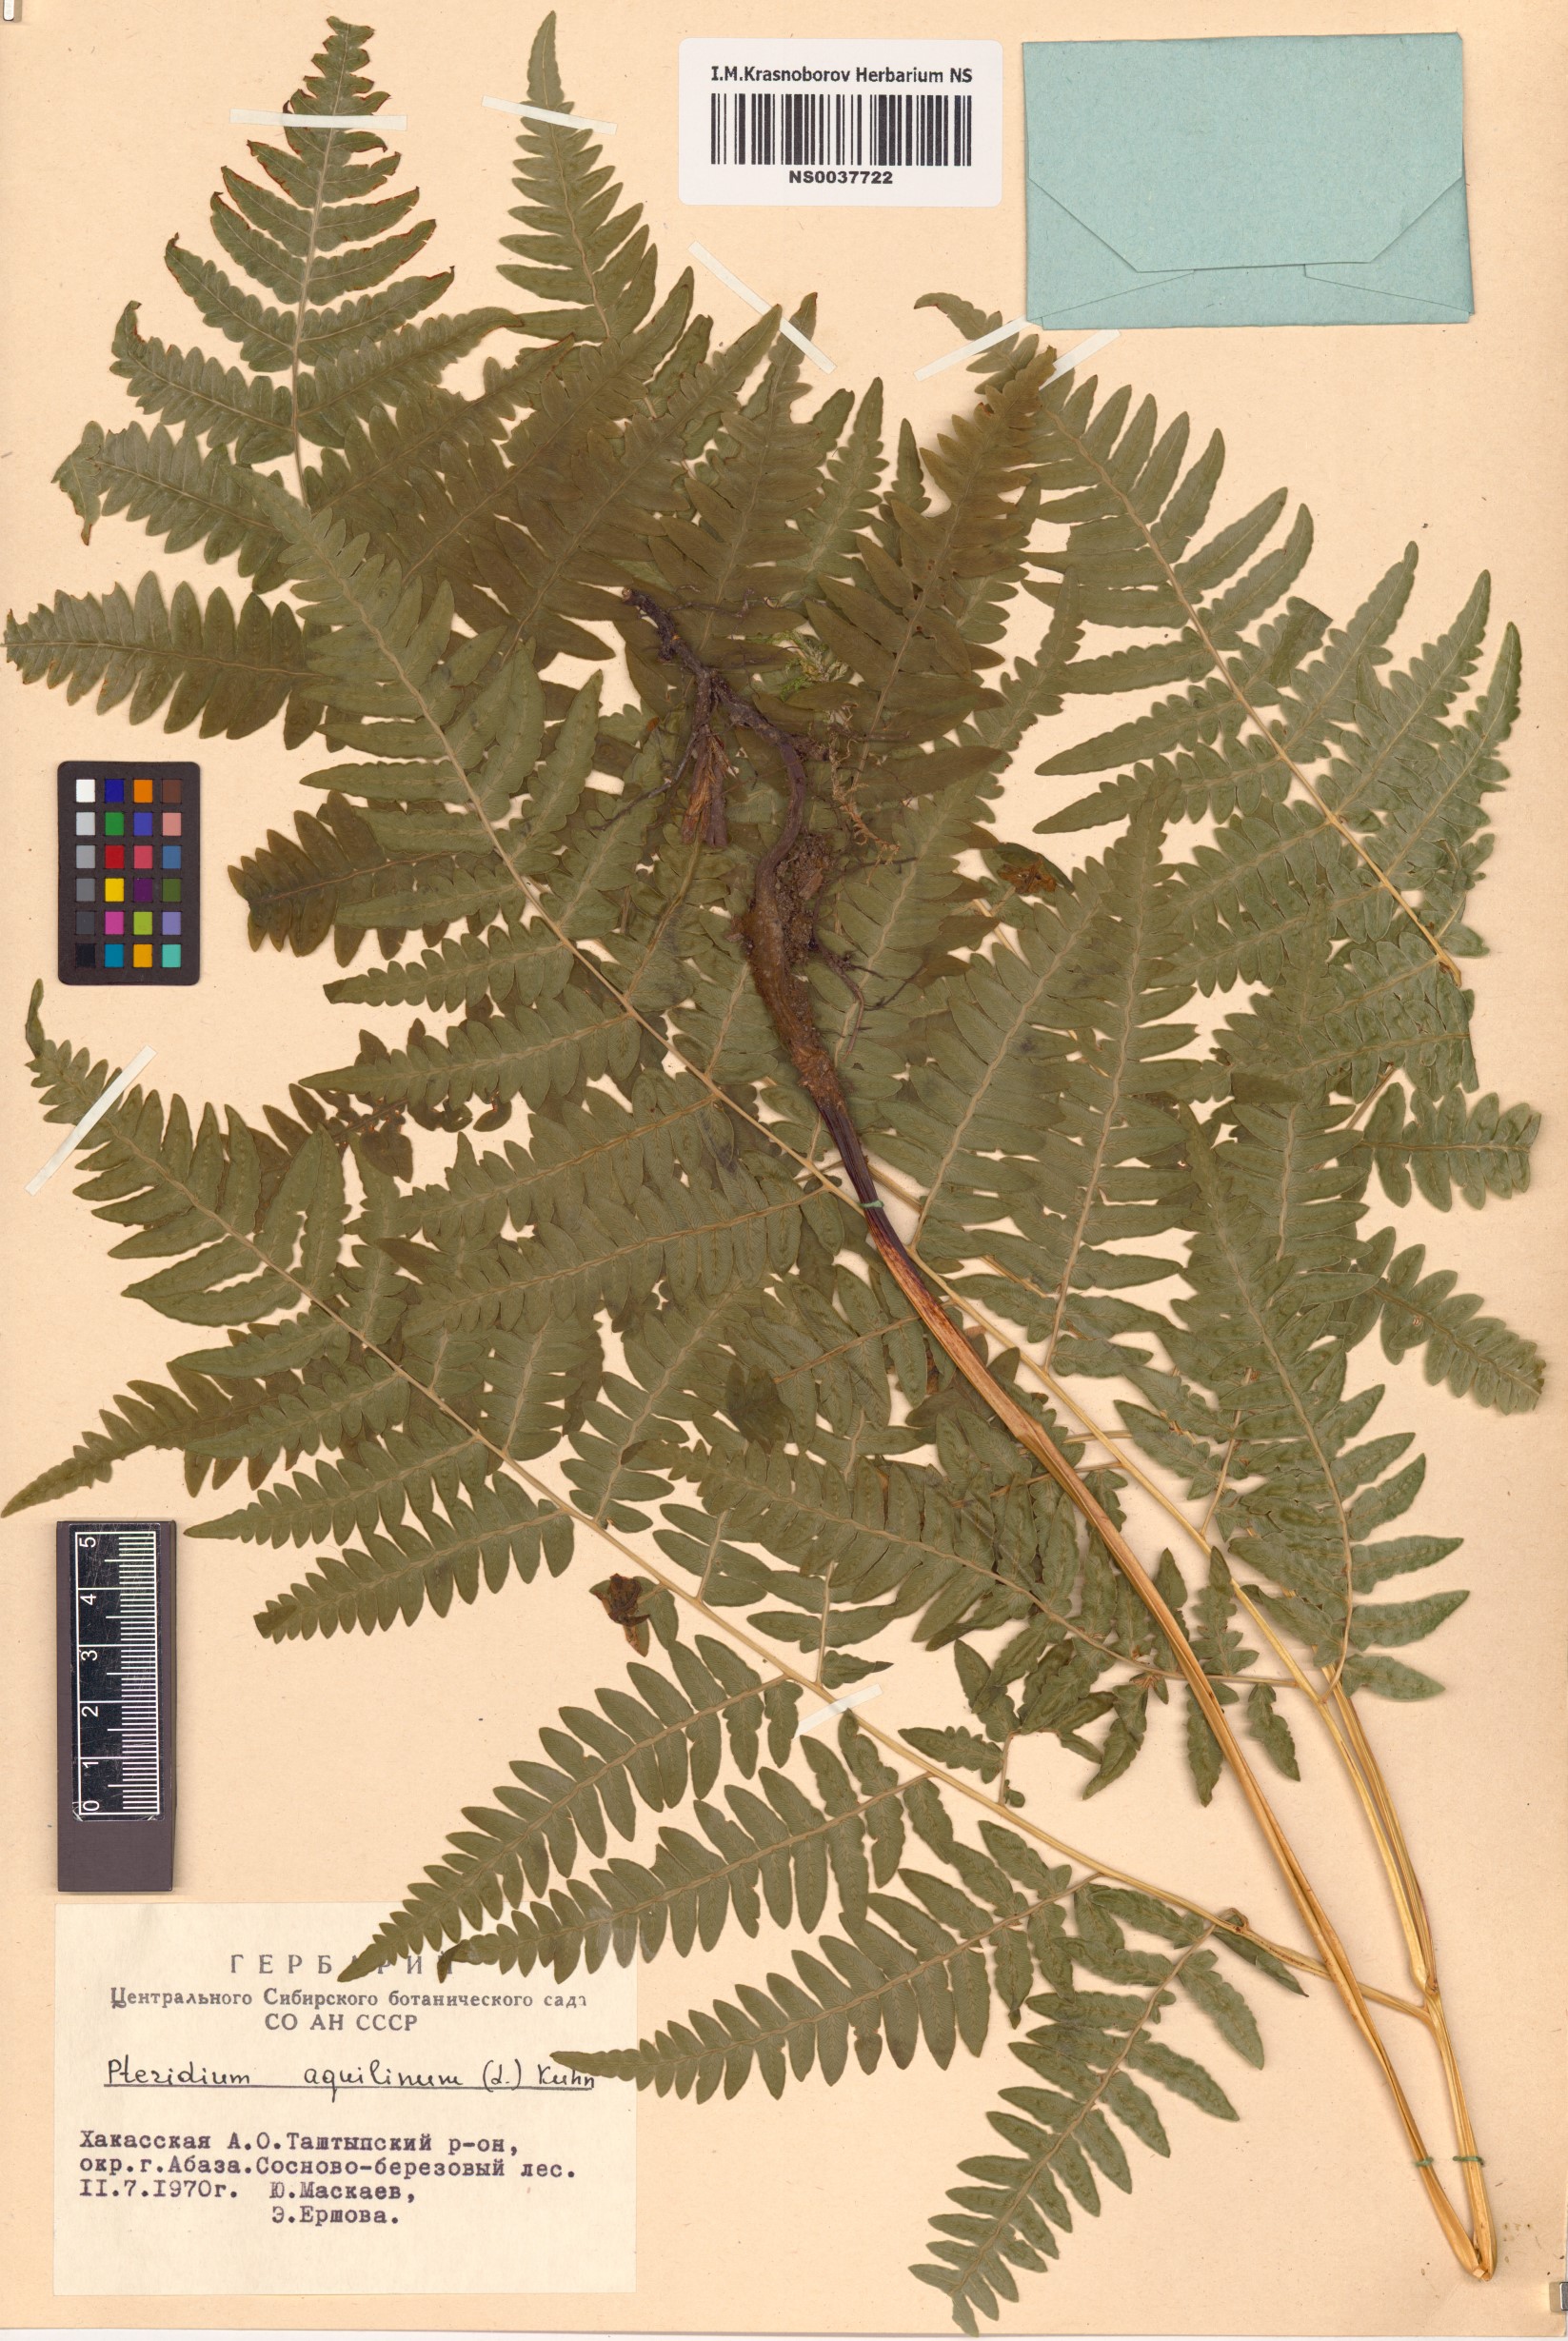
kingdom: Plantae
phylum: Tracheophyta
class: Polypodiopsida
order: Polypodiales
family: Dennstaedtiaceae
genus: Pteridium
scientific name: Pteridium aquilinum
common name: Bracken
